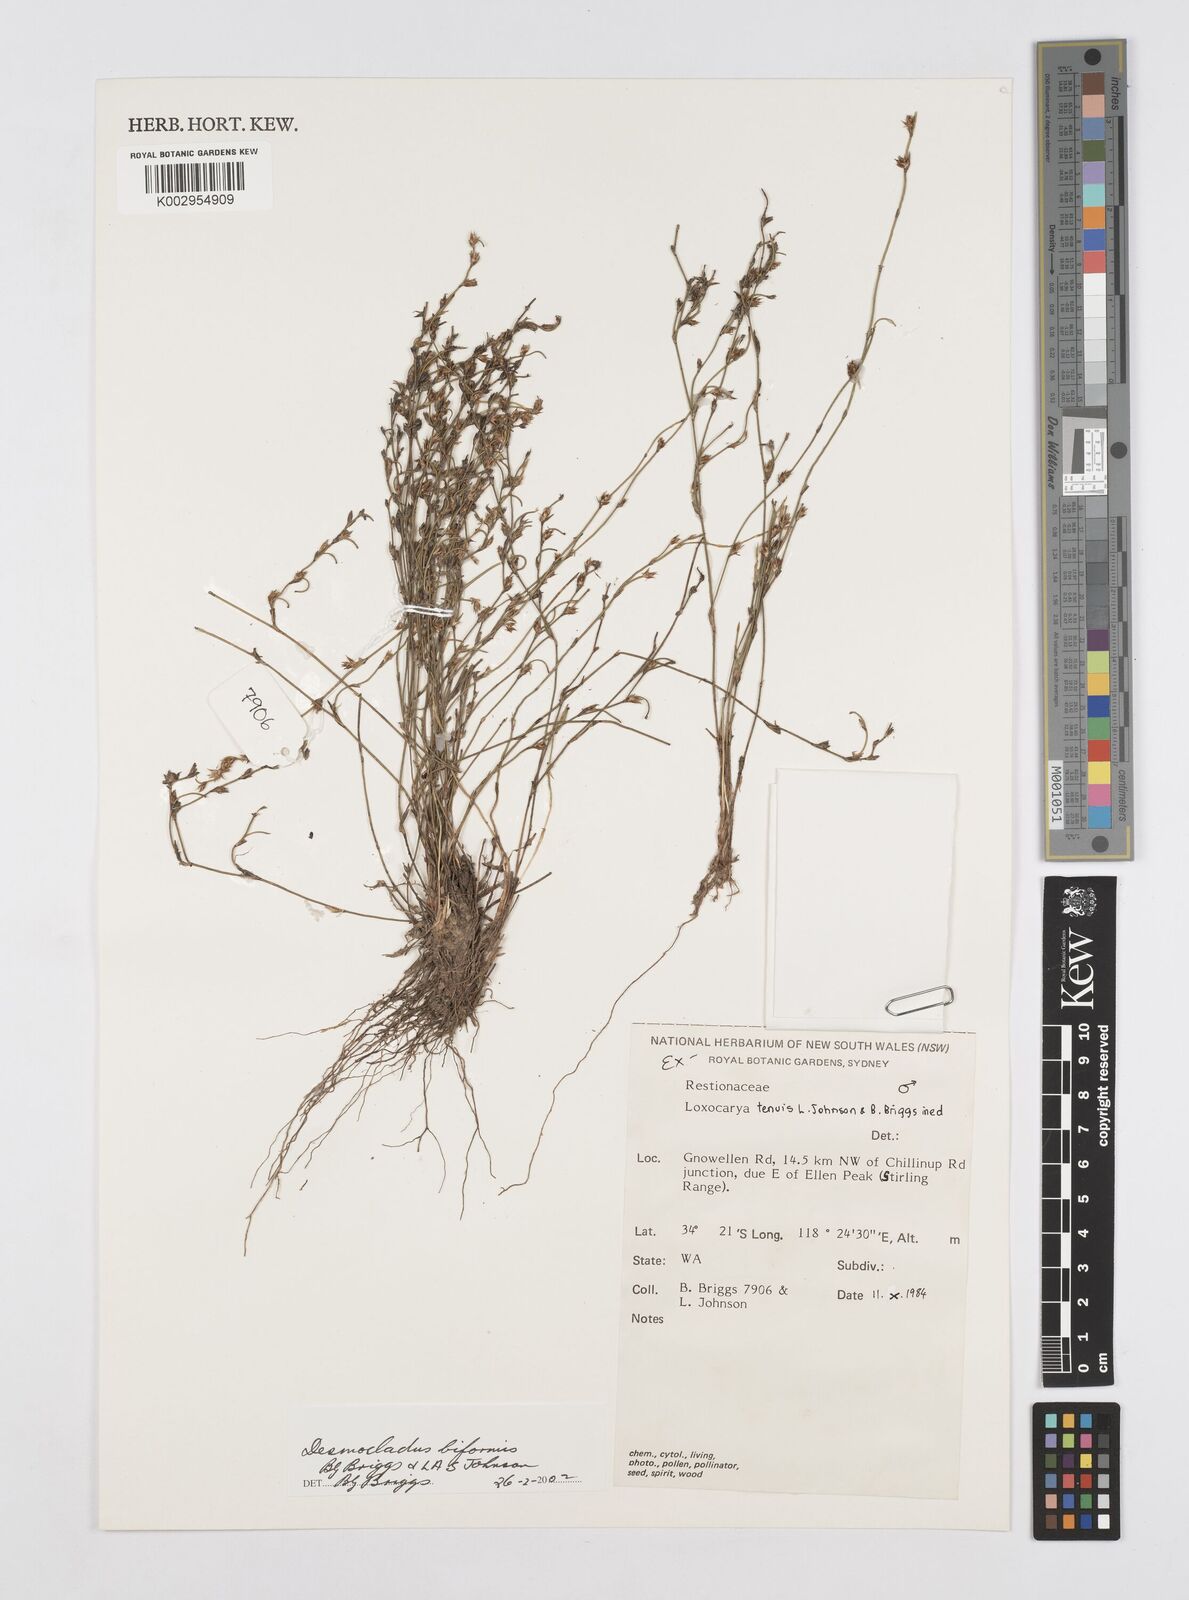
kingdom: Plantae
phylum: Tracheophyta
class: Liliopsida
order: Poales
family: Restionaceae
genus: Desmocladus
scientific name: Desmocladus biformis
